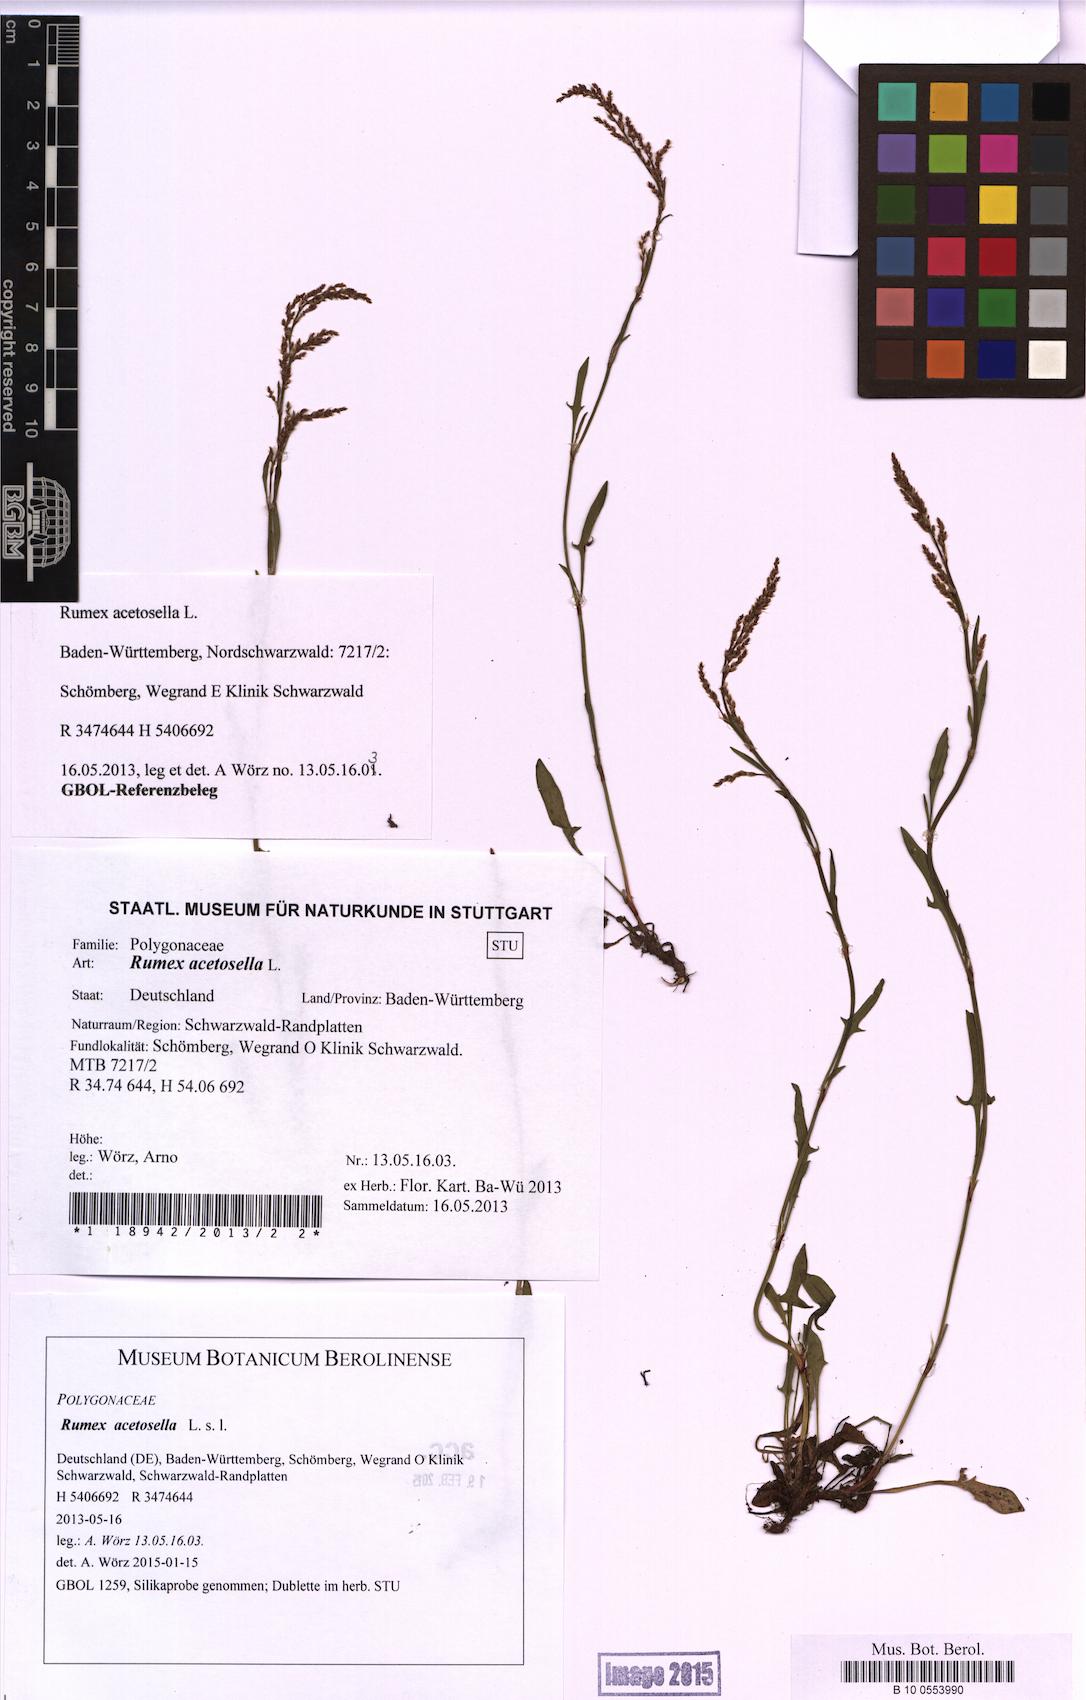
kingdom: Plantae
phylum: Tracheophyta
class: Magnoliopsida
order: Caryophyllales
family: Polygonaceae
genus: Rumex
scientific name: Rumex acetosella
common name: Common sheep sorrel
